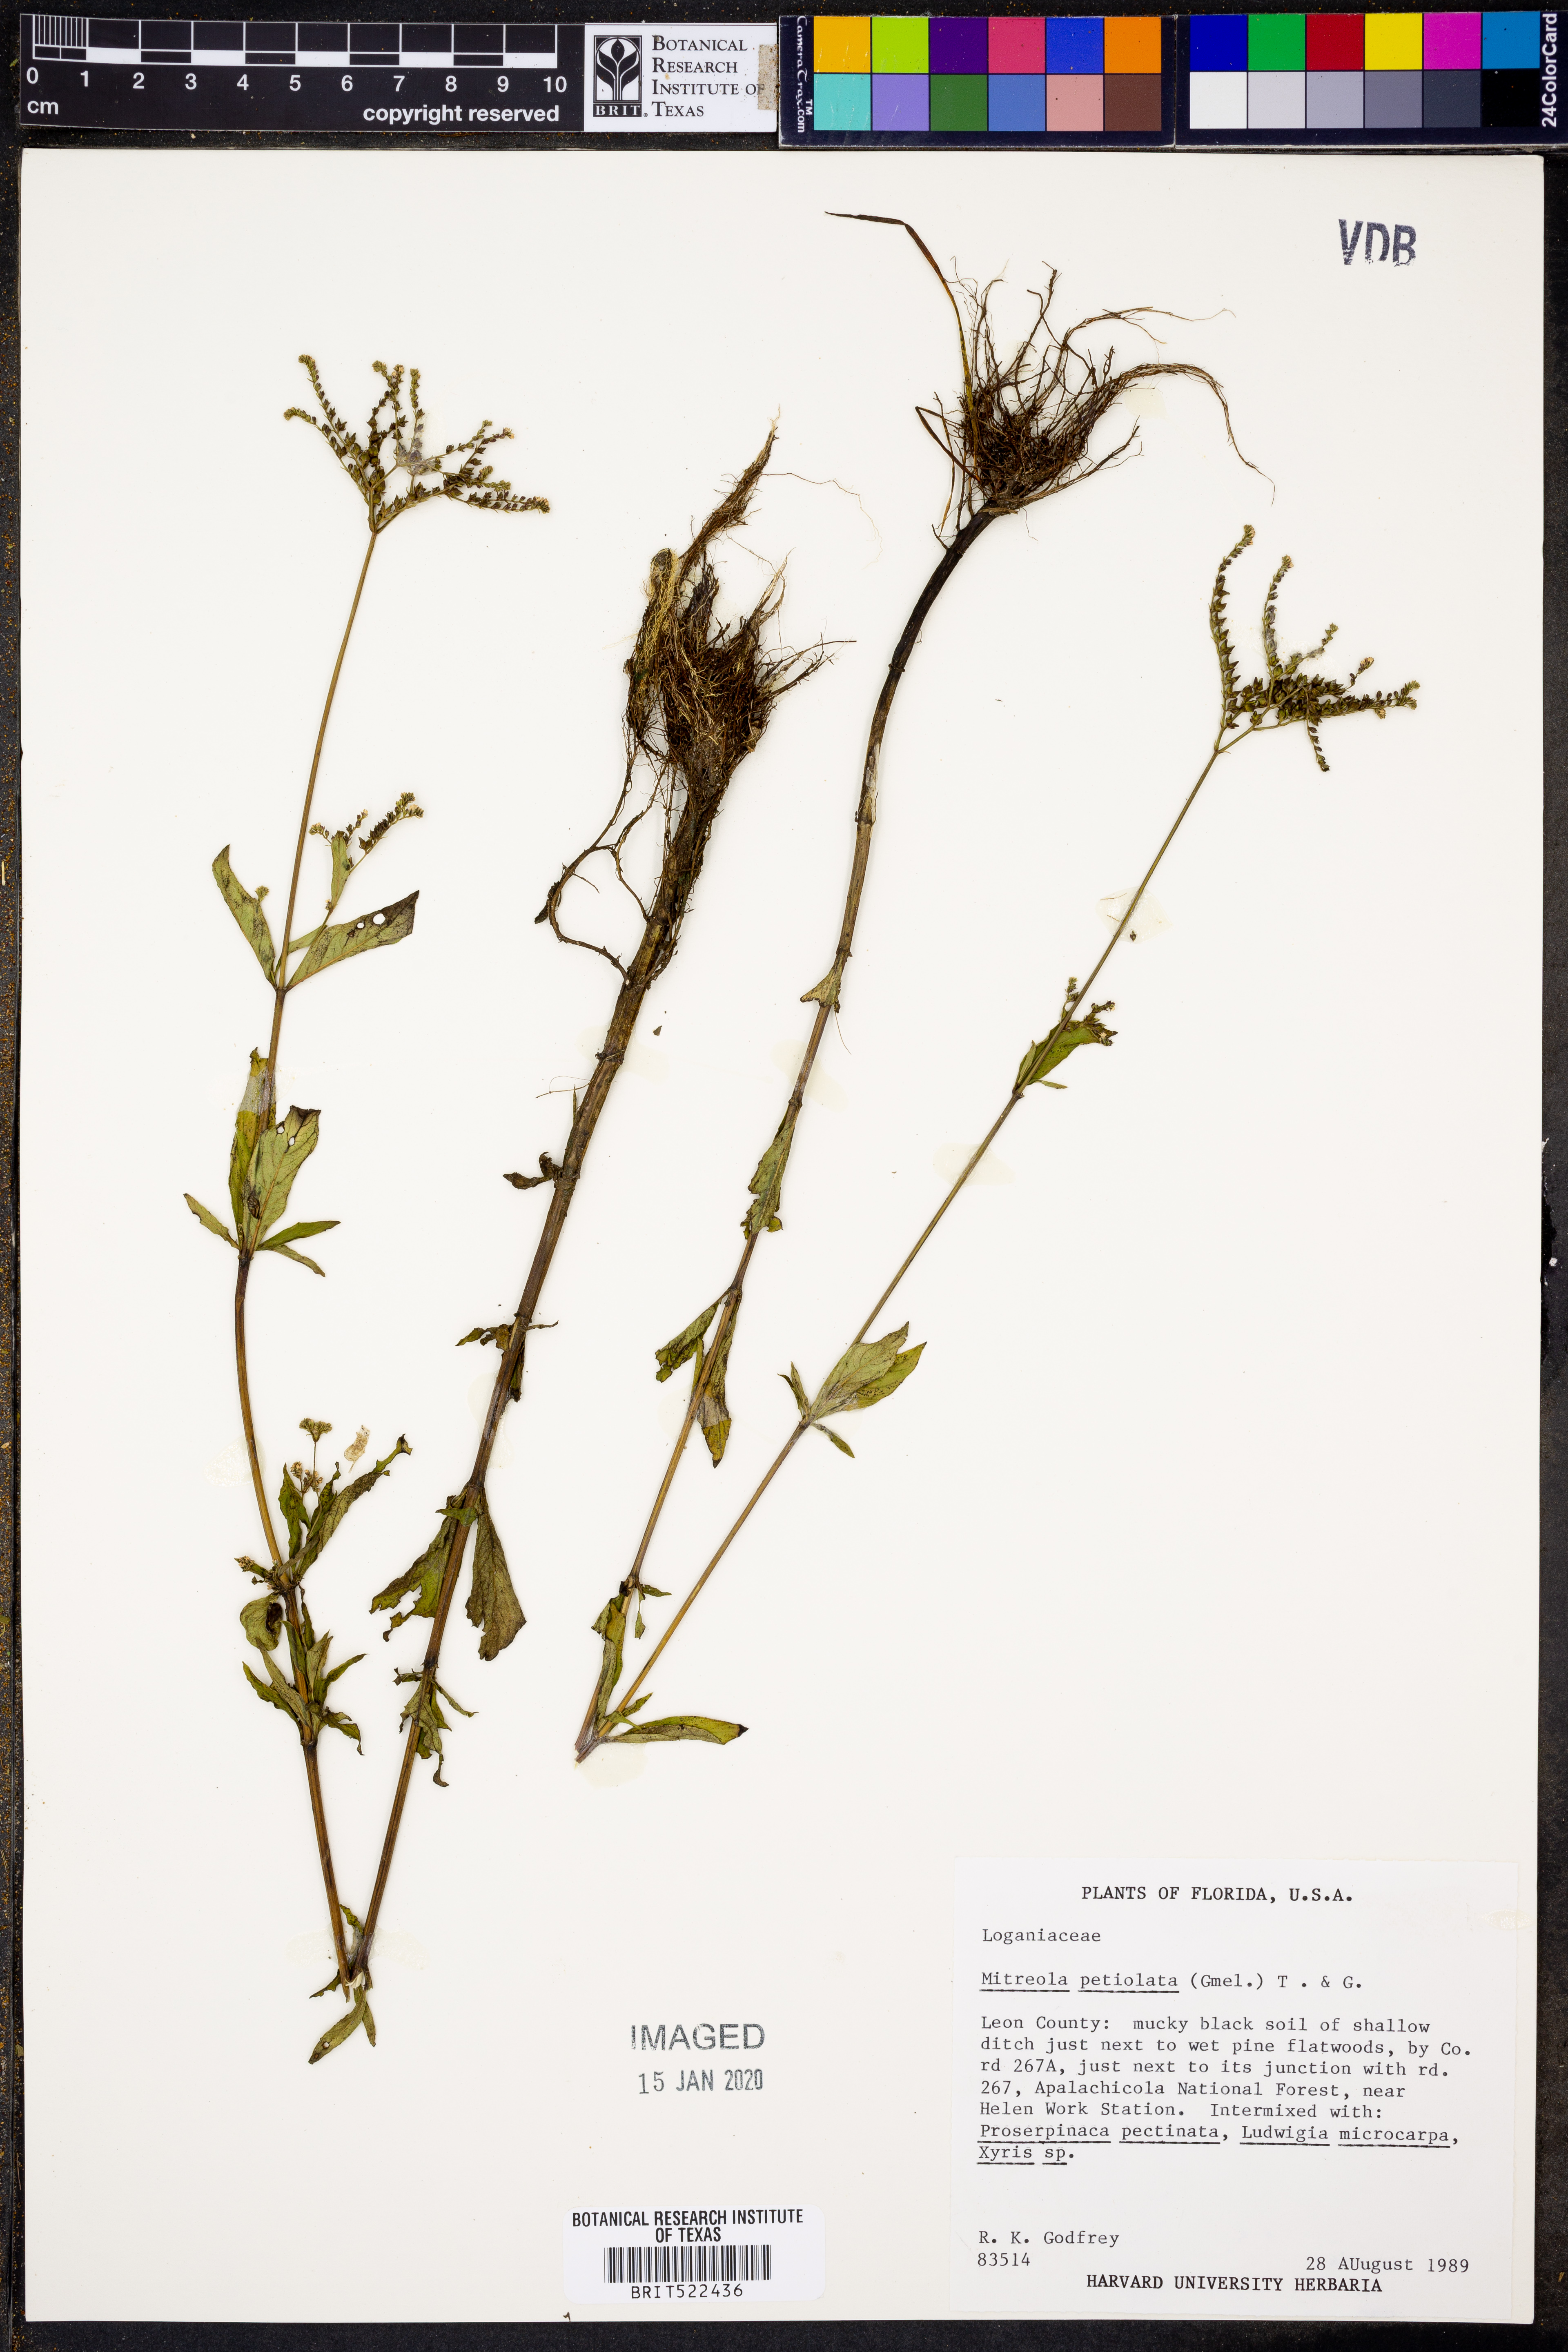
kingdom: Plantae
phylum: Tracheophyta
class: Magnoliopsida
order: Gentianales
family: Loganiaceae
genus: Mitreola
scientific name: Mitreola petiolata
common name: Lax hornpod
